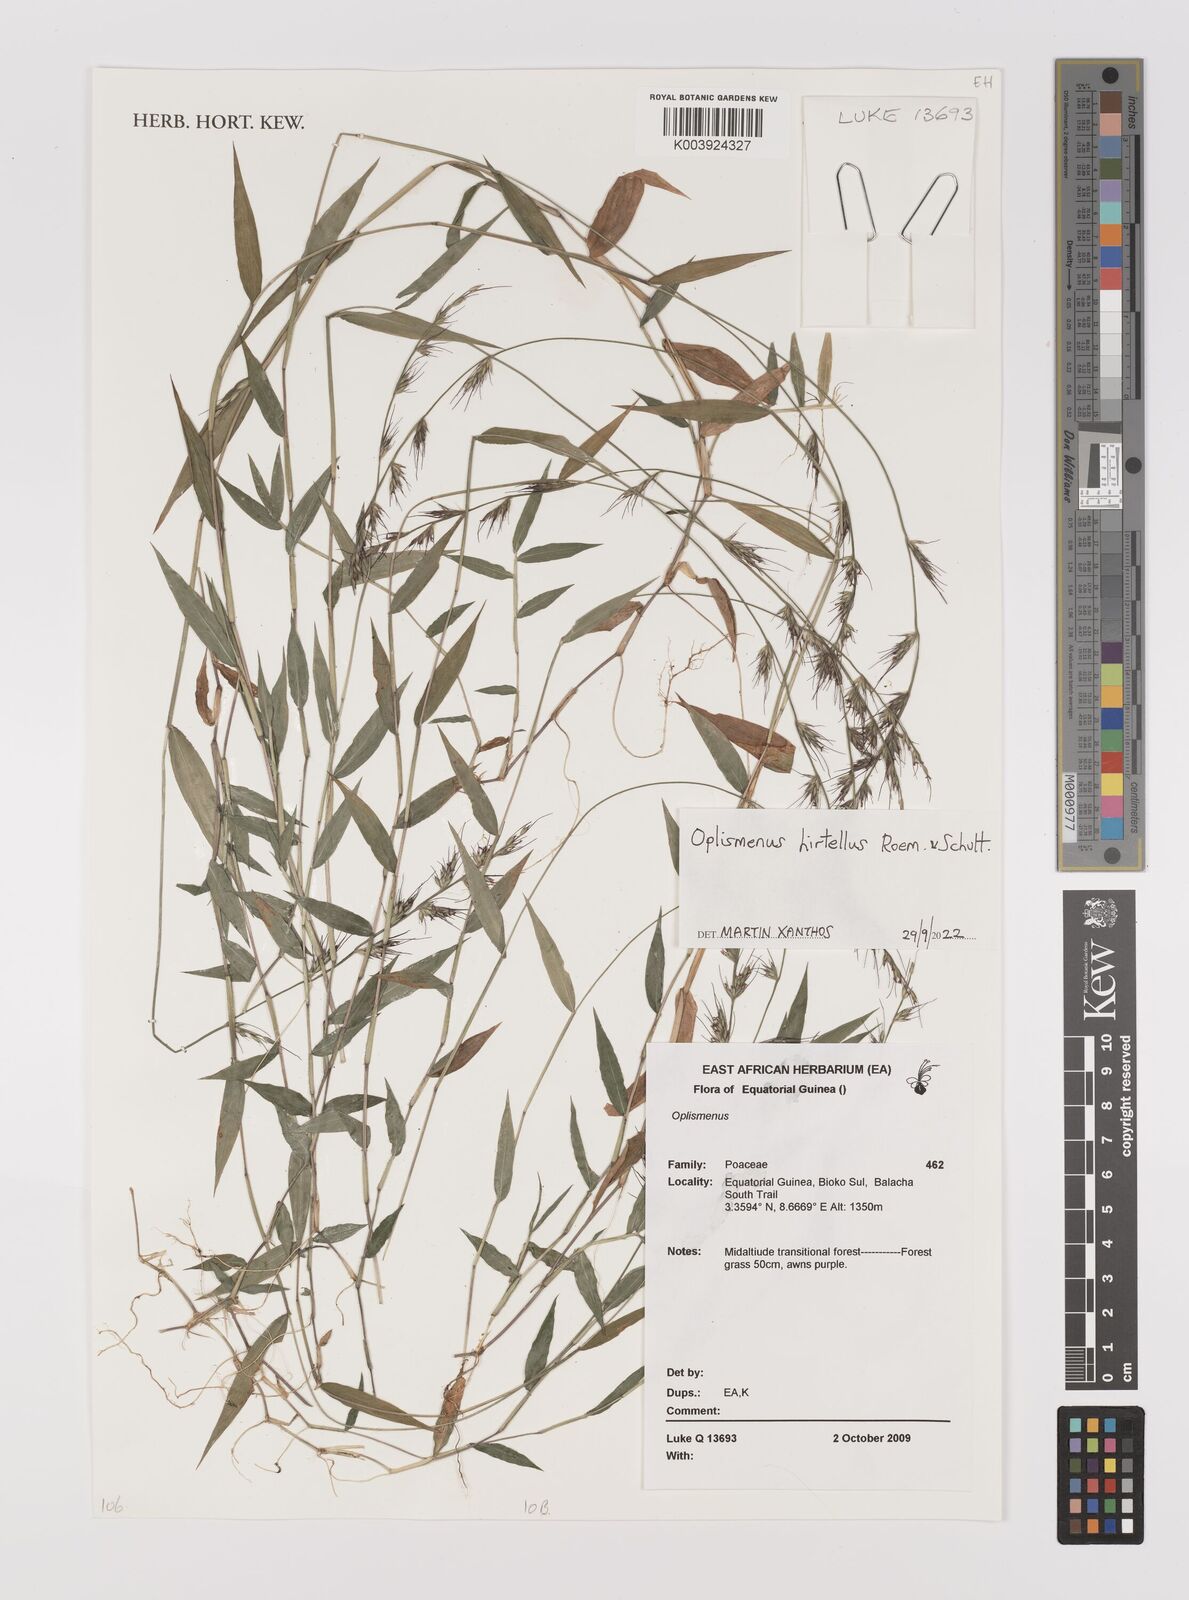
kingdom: Plantae
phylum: Tracheophyta
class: Liliopsida
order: Poales
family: Poaceae
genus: Oplismenus
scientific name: Oplismenus hirtellus
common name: Basketgrass
